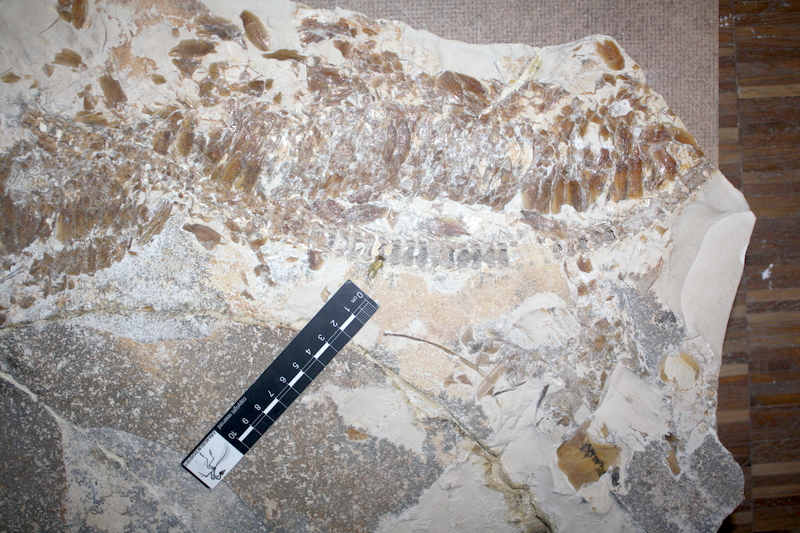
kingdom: Animalia
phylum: Chordata
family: Aspidorhynchidae
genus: Aspidorhynchus
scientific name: Aspidorhynchus acutirostris
